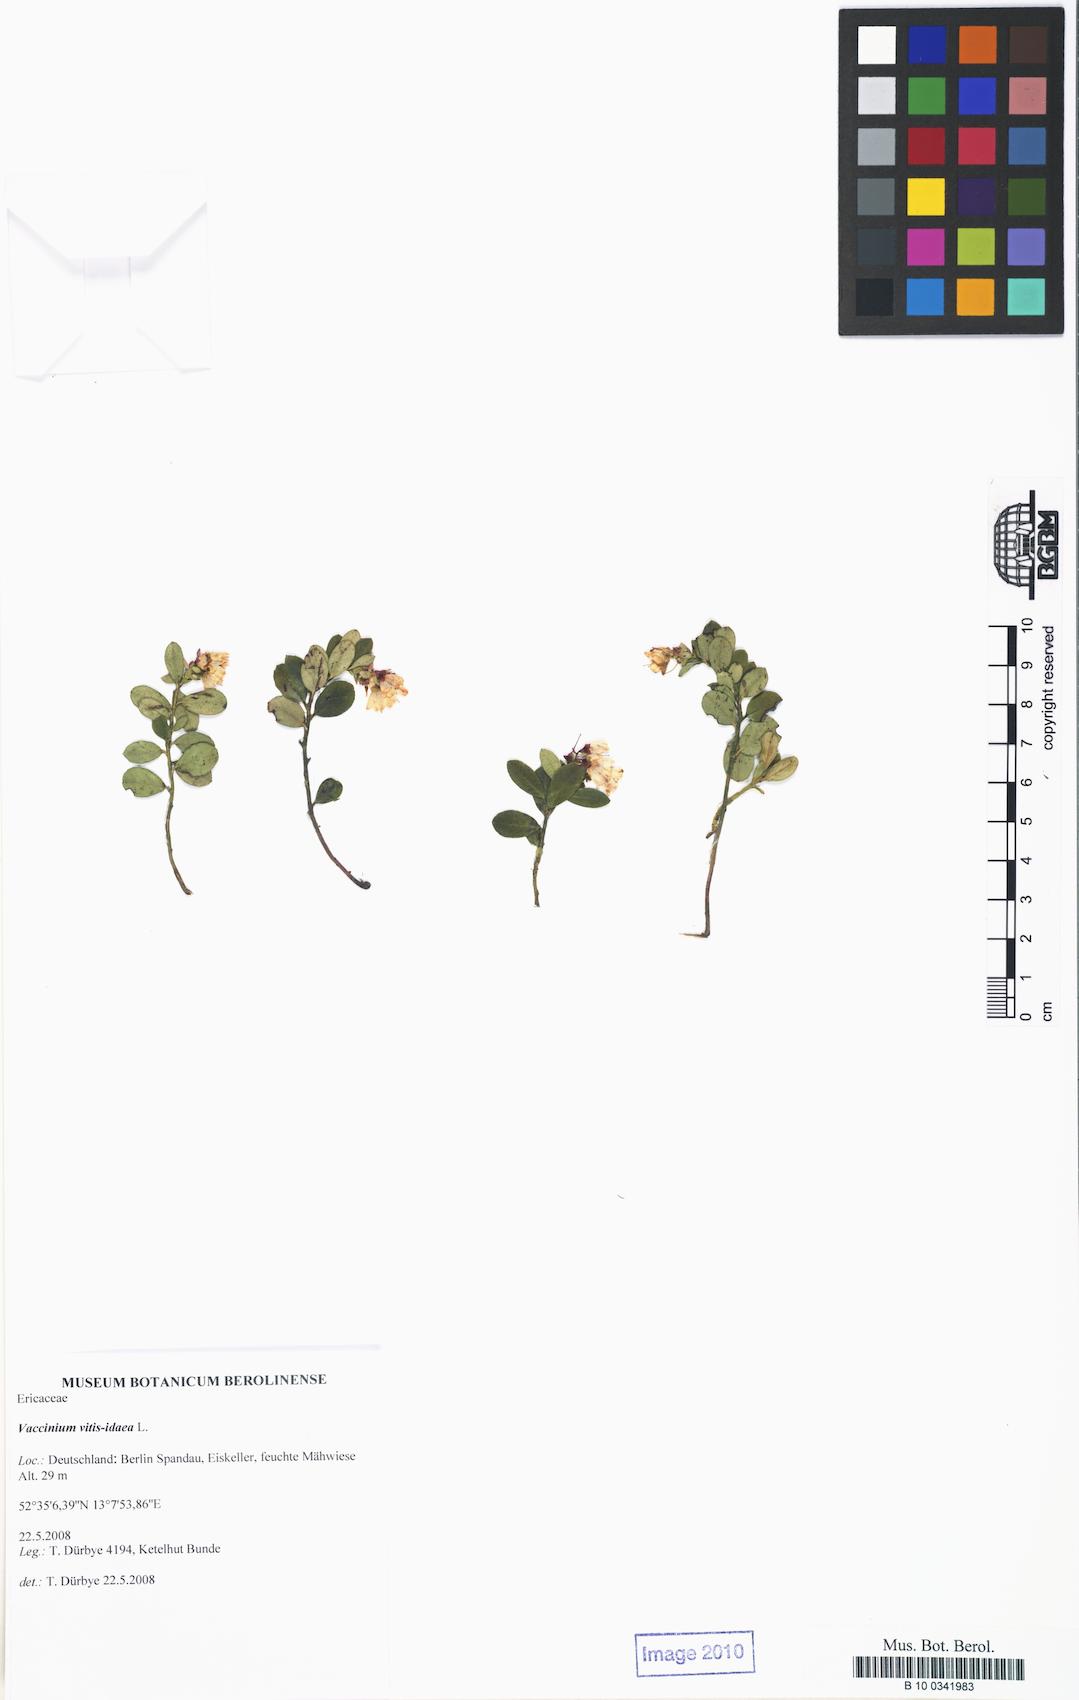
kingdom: Plantae
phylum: Tracheophyta
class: Magnoliopsida
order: Ericales
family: Ericaceae
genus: Vaccinium
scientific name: Vaccinium vitis-idaea
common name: Cowberry
